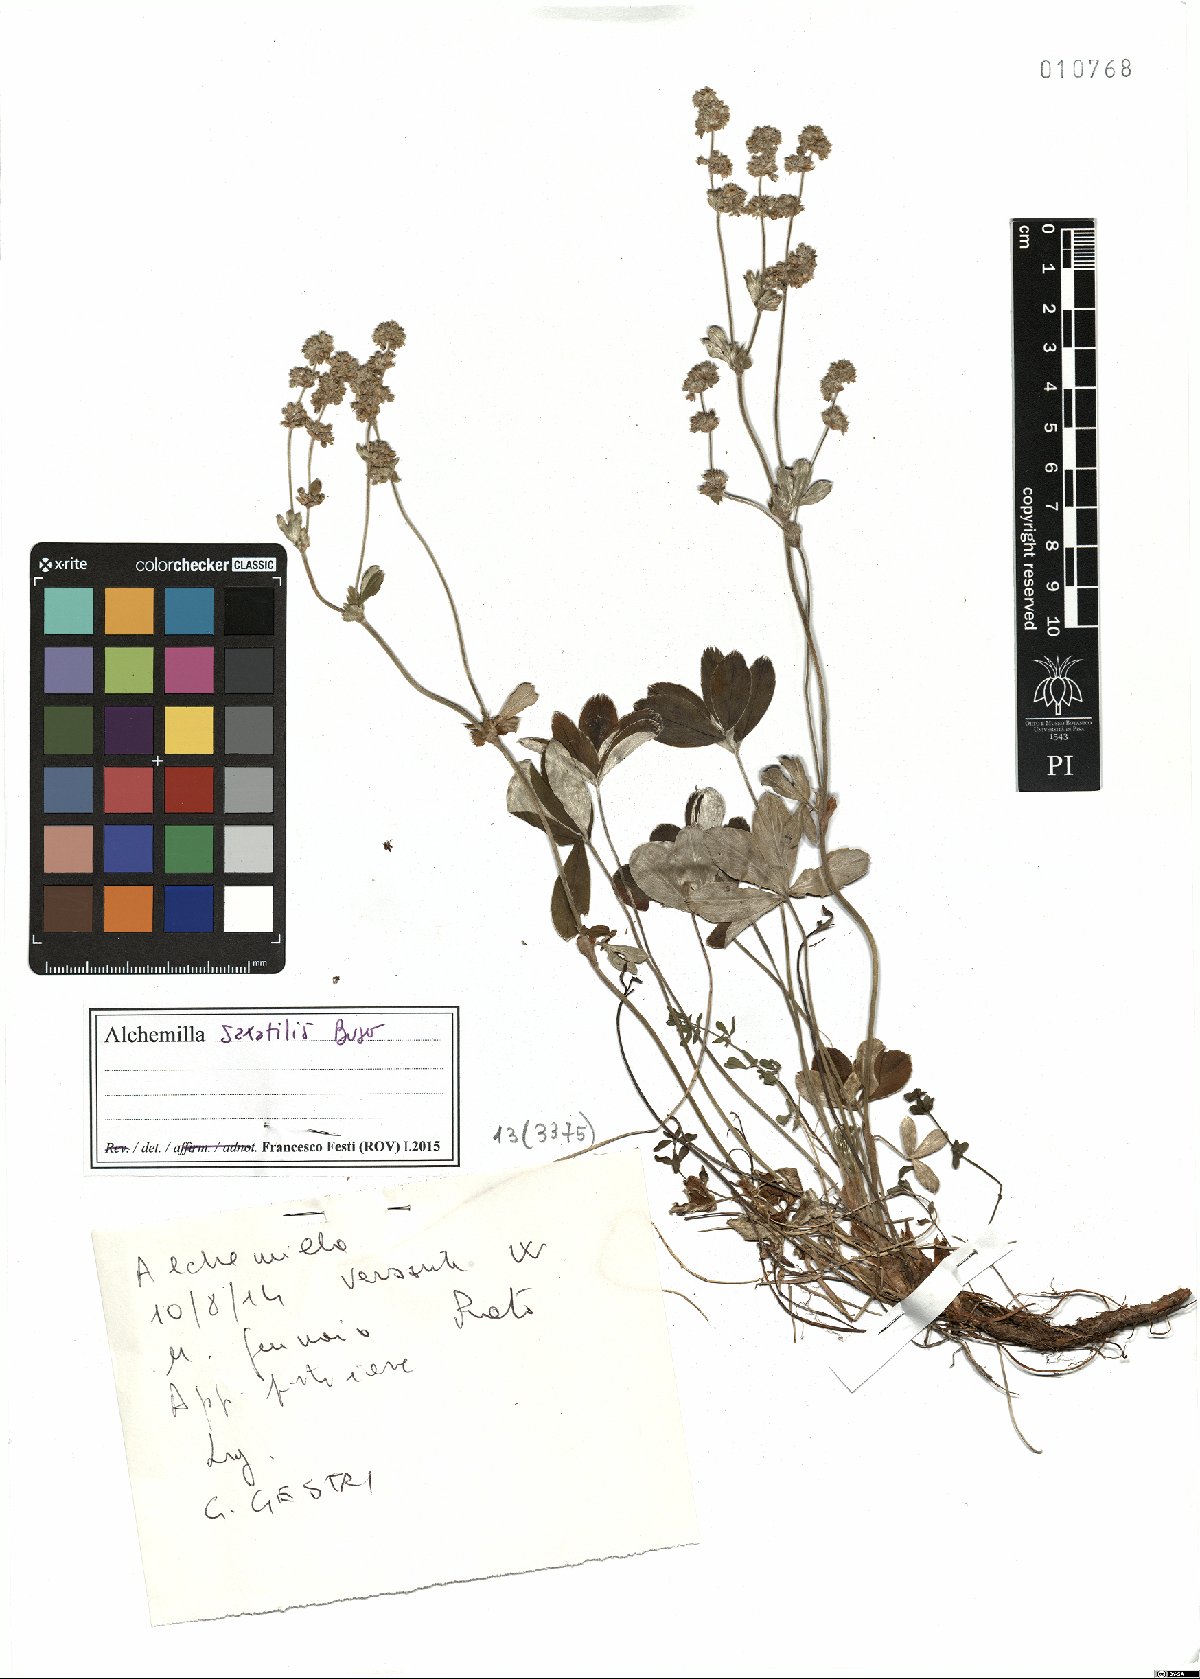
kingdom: Plantae
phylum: Tracheophyta
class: Magnoliopsida
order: Rosales
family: Rosaceae
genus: Alchemilla
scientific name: Alchemilla saxatilis
